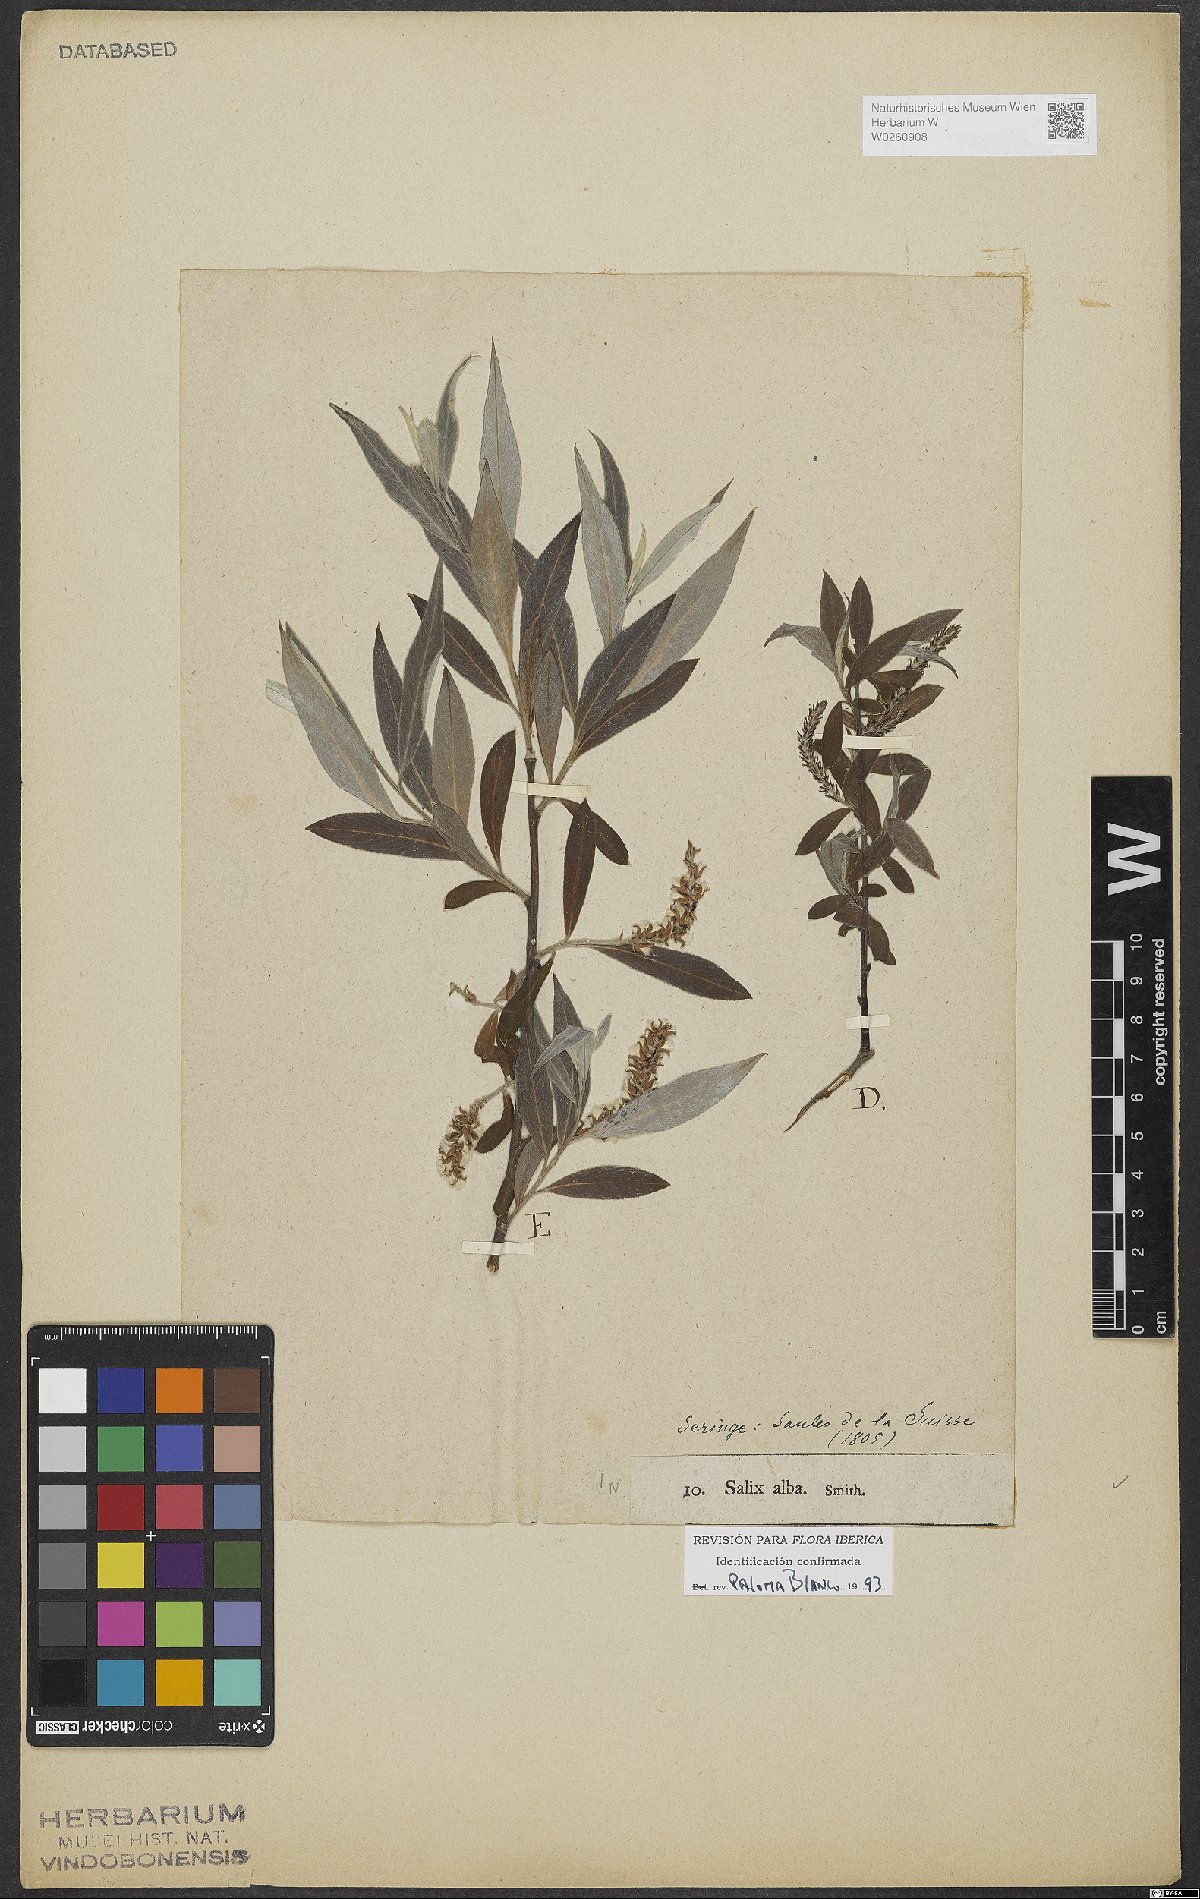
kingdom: Plantae
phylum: Tracheophyta
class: Magnoliopsida
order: Malpighiales
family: Salicaceae
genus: Salix
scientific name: Salix alba
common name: White willow
